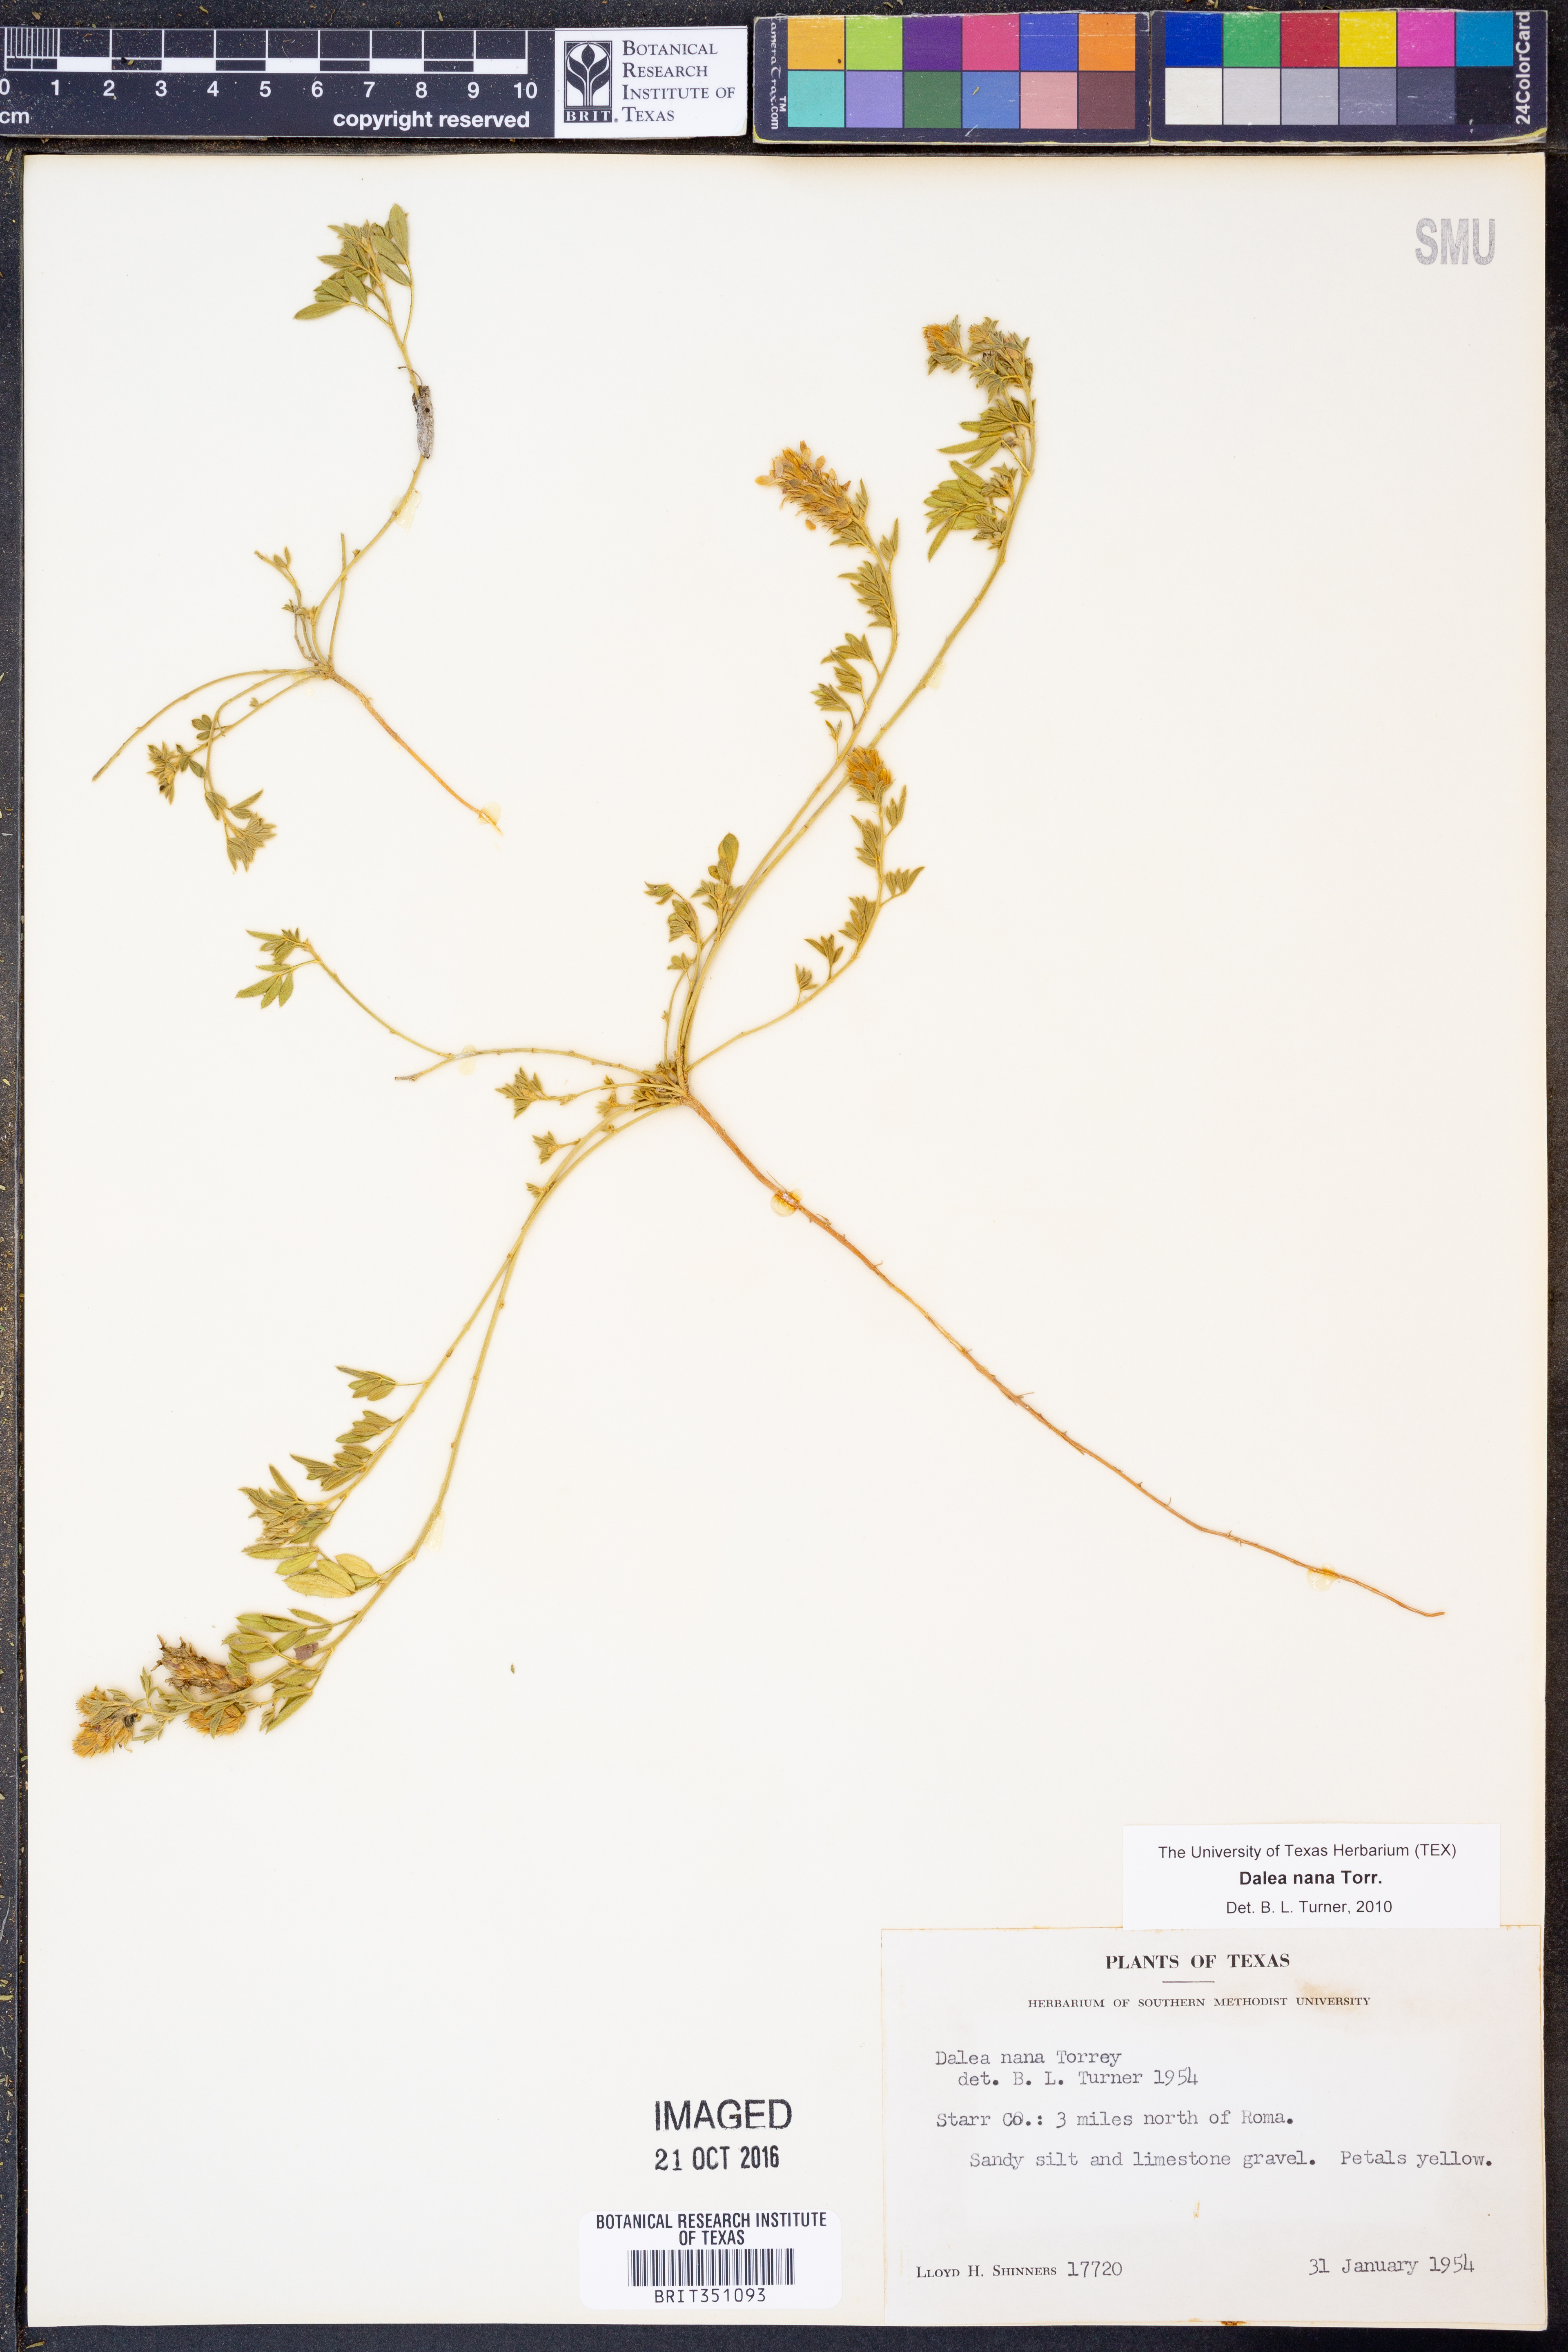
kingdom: Plantae
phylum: Tracheophyta
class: Magnoliopsida
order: Fabales
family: Fabaceae
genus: Dalea
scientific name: Dalea nana
